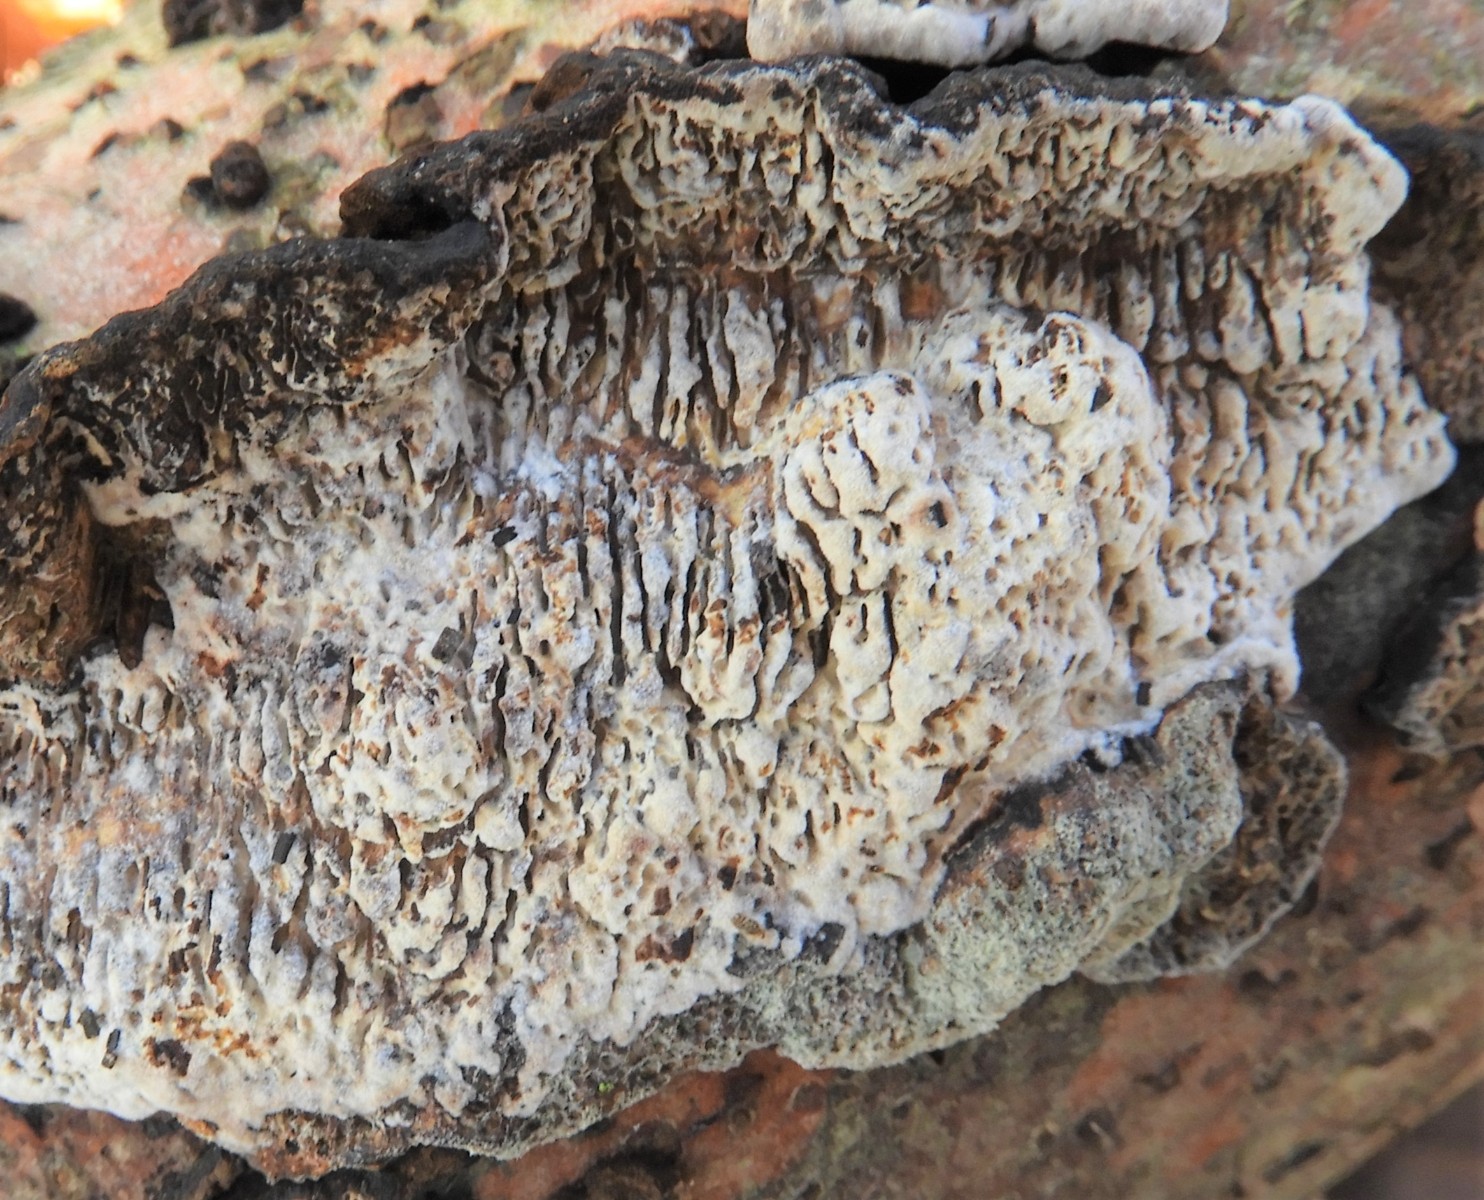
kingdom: Fungi
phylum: Basidiomycota
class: Agaricomycetes
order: Polyporales
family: Polyporaceae
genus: Podofomes
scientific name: Podofomes mollis
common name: blød begporesvamp
